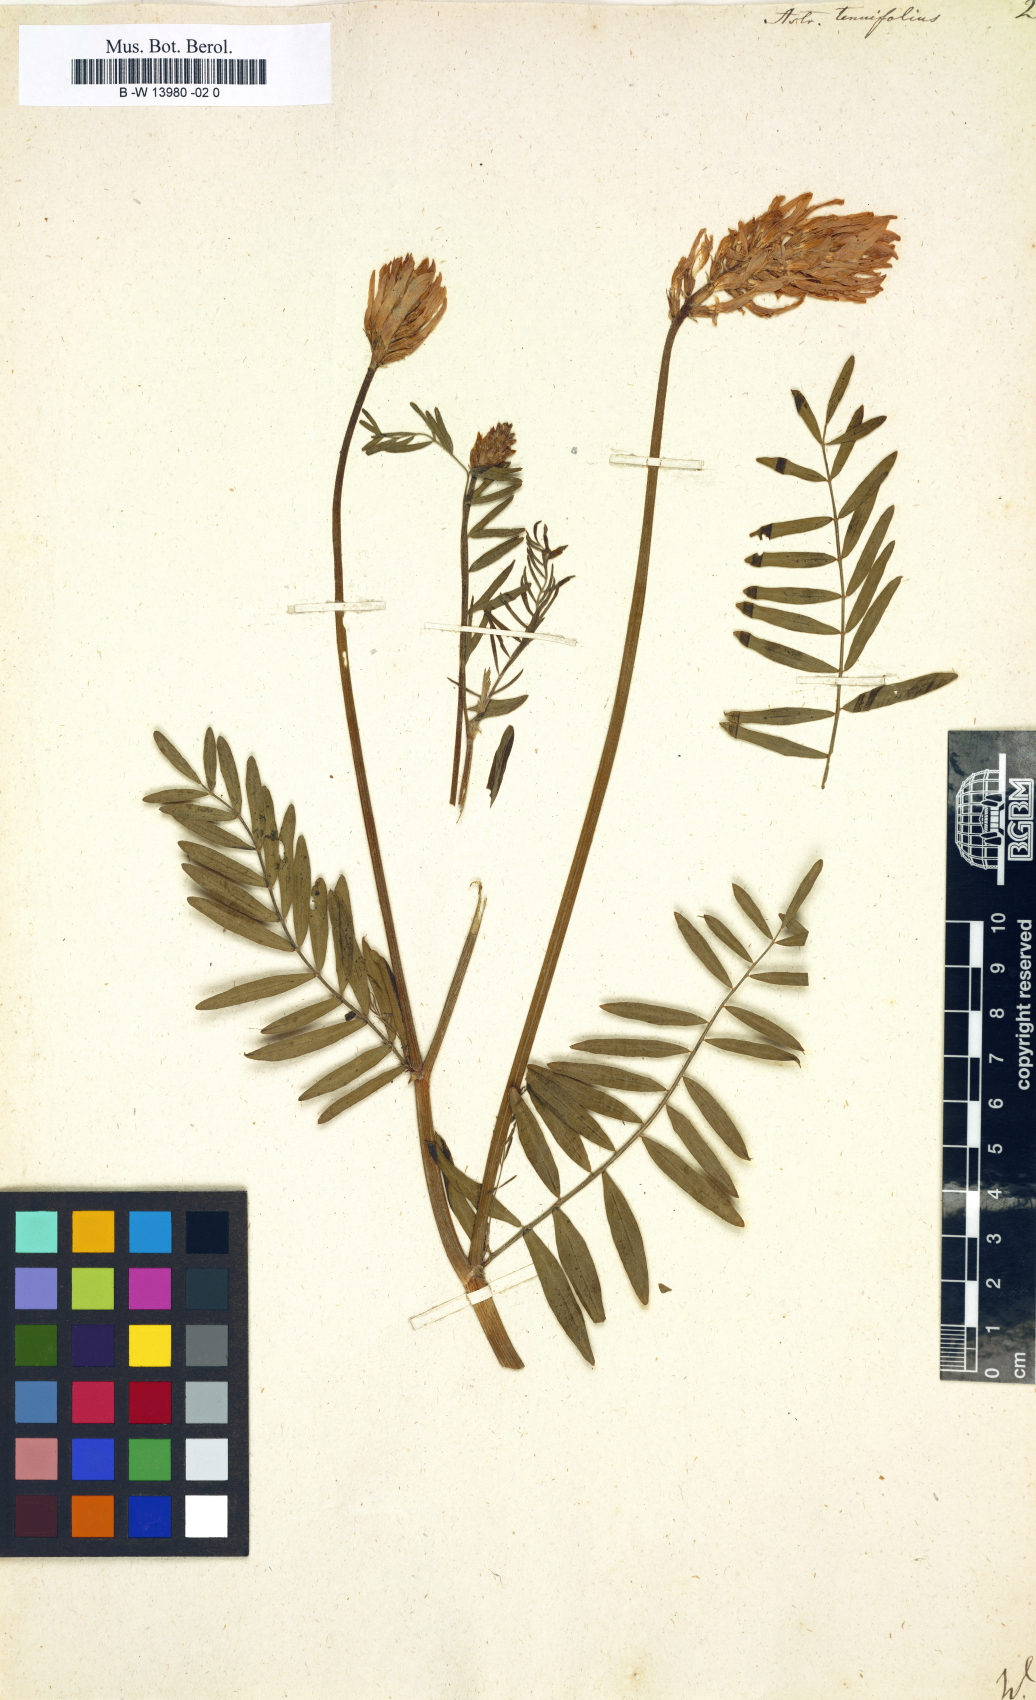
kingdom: Plantae
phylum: Tracheophyta
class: Magnoliopsida
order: Fabales
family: Fabaceae
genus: Astragalus
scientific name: Astragalus
